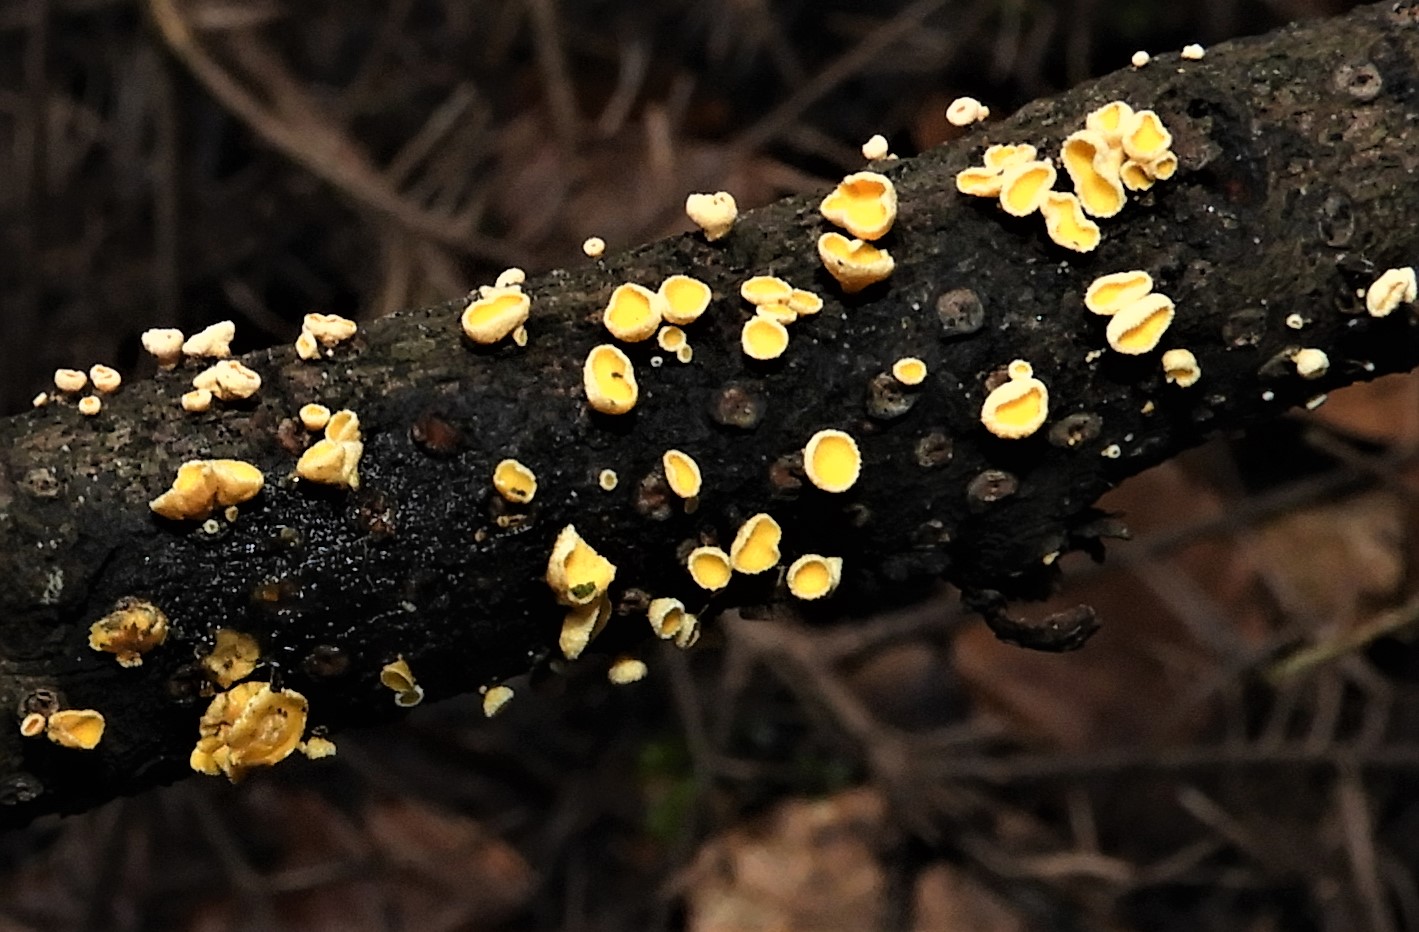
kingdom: Fungi
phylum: Ascomycota
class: Leotiomycetes
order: Helotiales
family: Lachnaceae
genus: Lachnellula
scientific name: Lachnellula
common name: frynseskive
